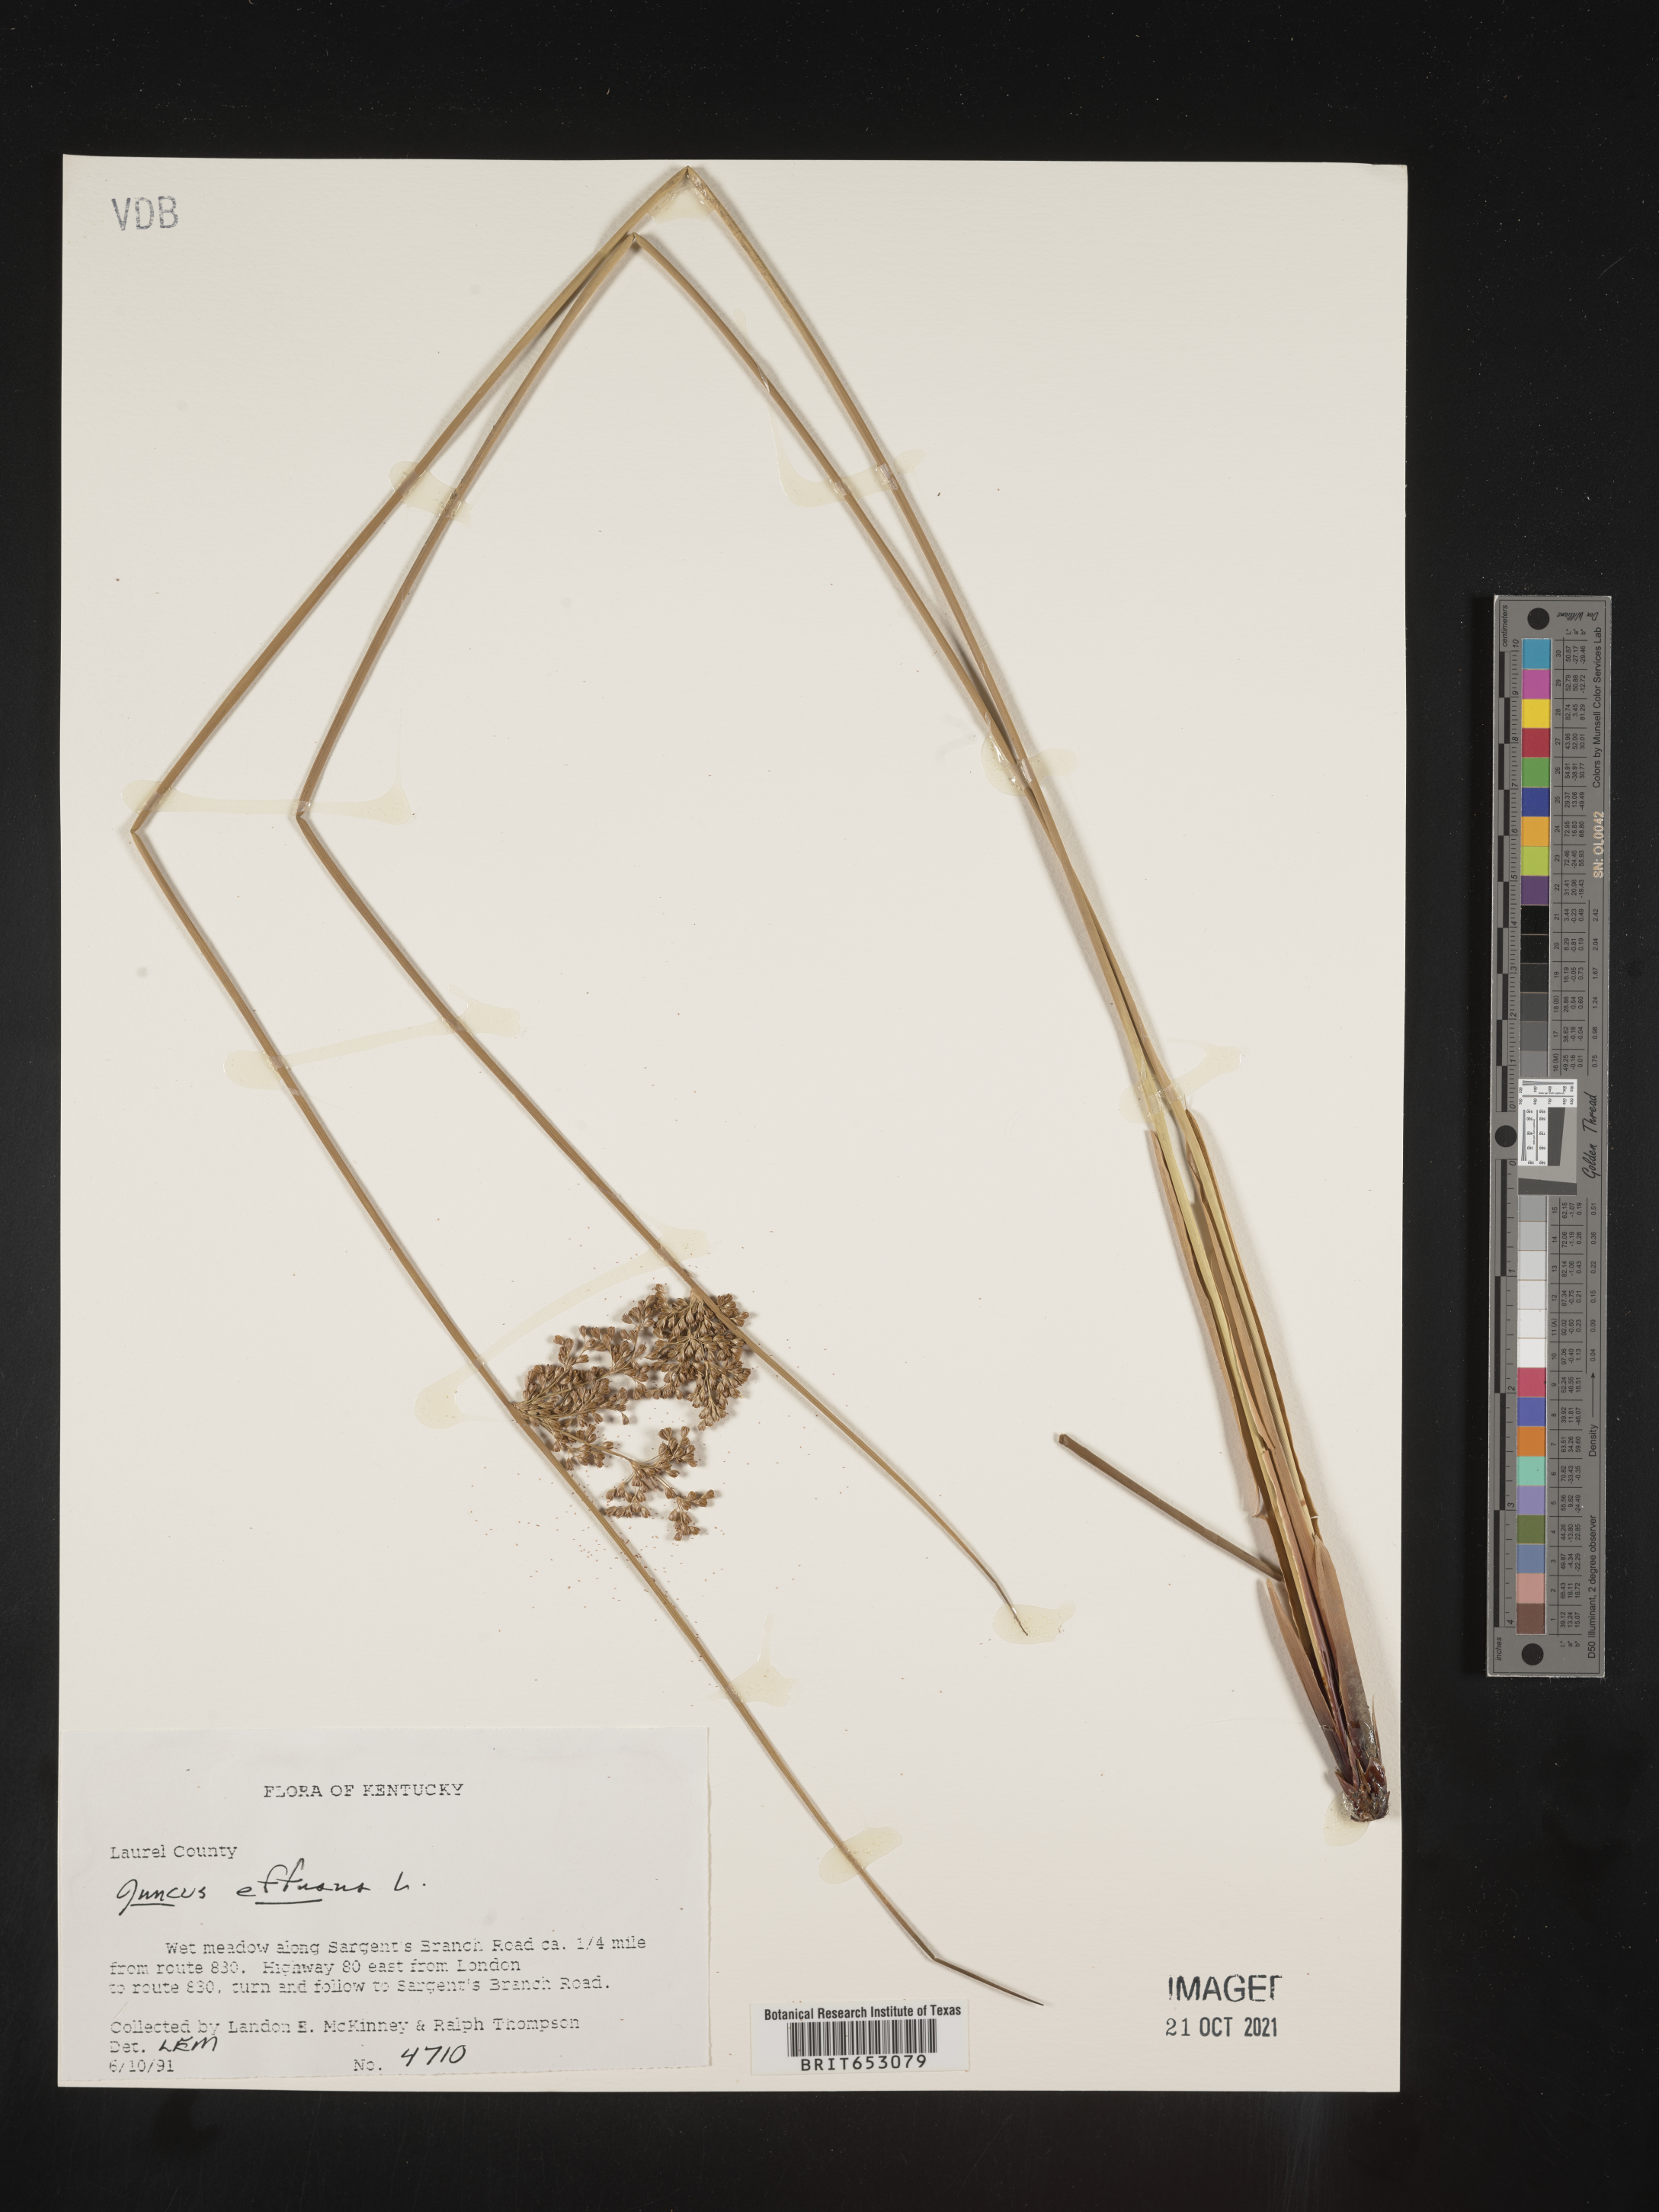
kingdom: Plantae
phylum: Tracheophyta
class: Liliopsida
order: Poales
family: Juncaceae
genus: Juncus
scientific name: Juncus effusus
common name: Soft rush
